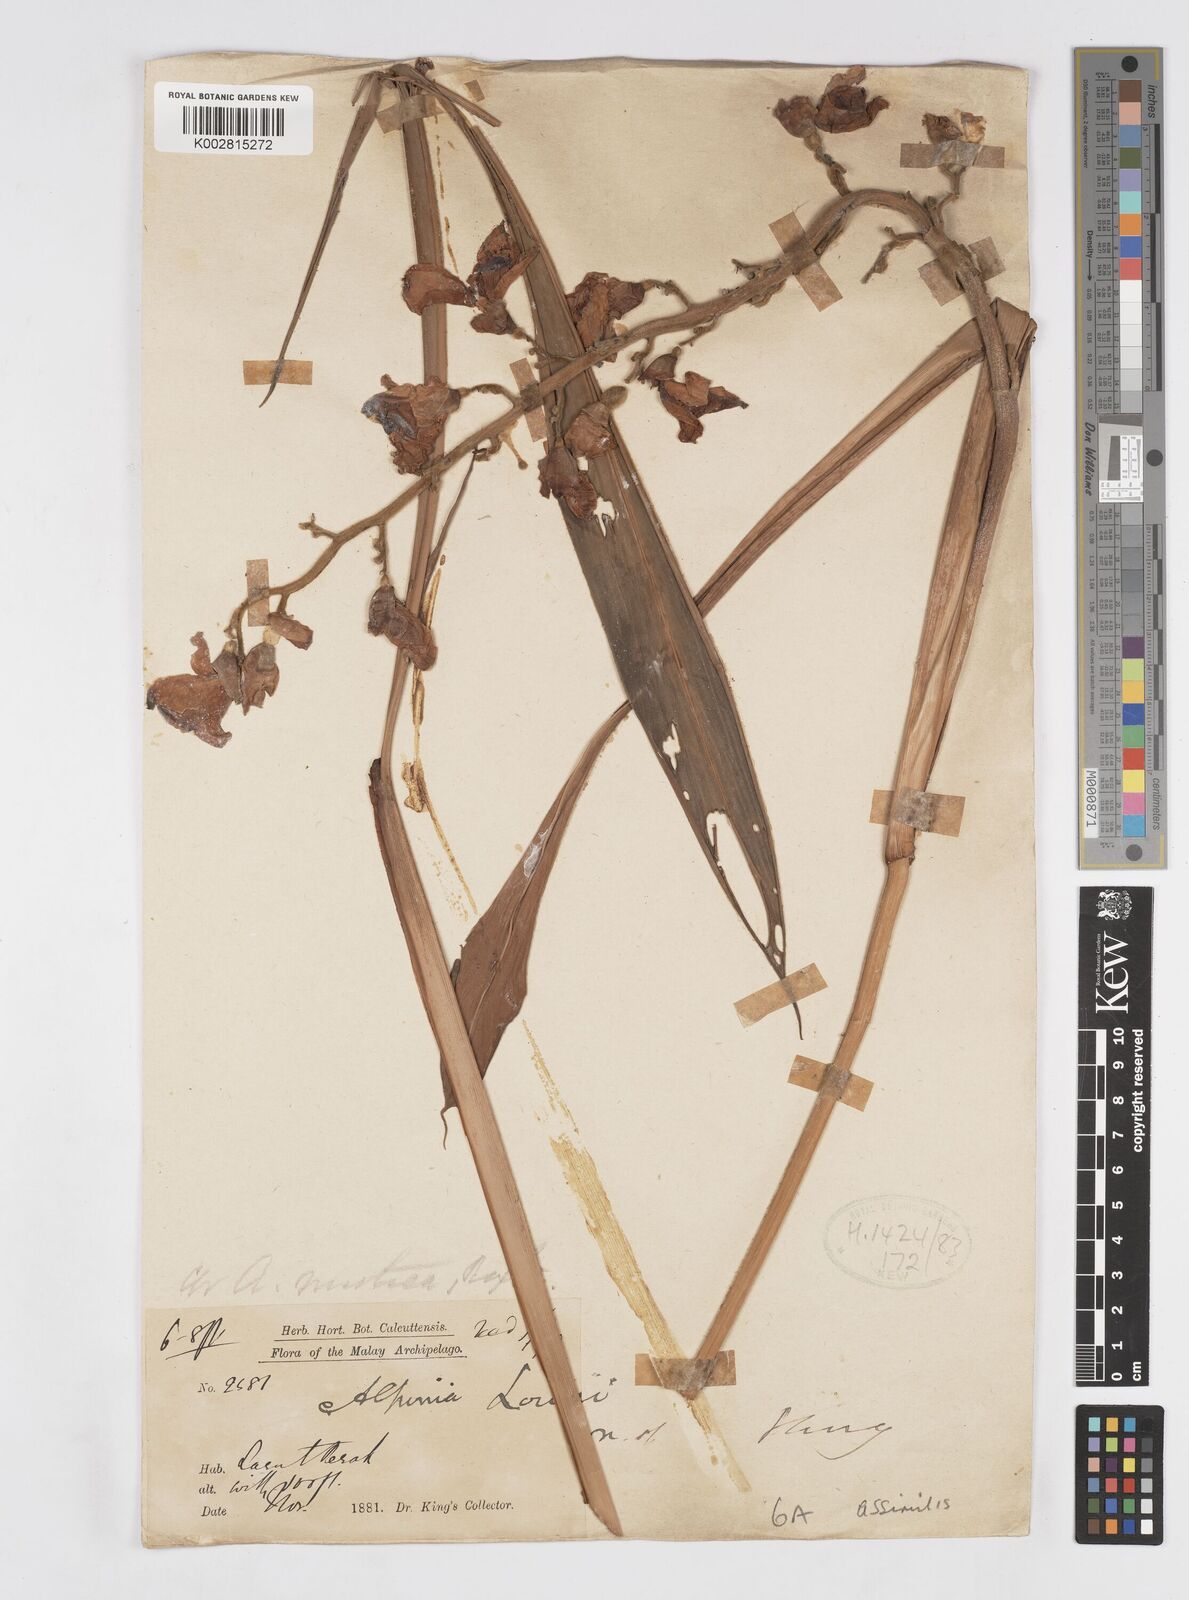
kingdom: Plantae
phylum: Tracheophyta
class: Liliopsida
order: Zingiberales
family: Zingiberaceae
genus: Alpinia
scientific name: Alpinia assimilis
